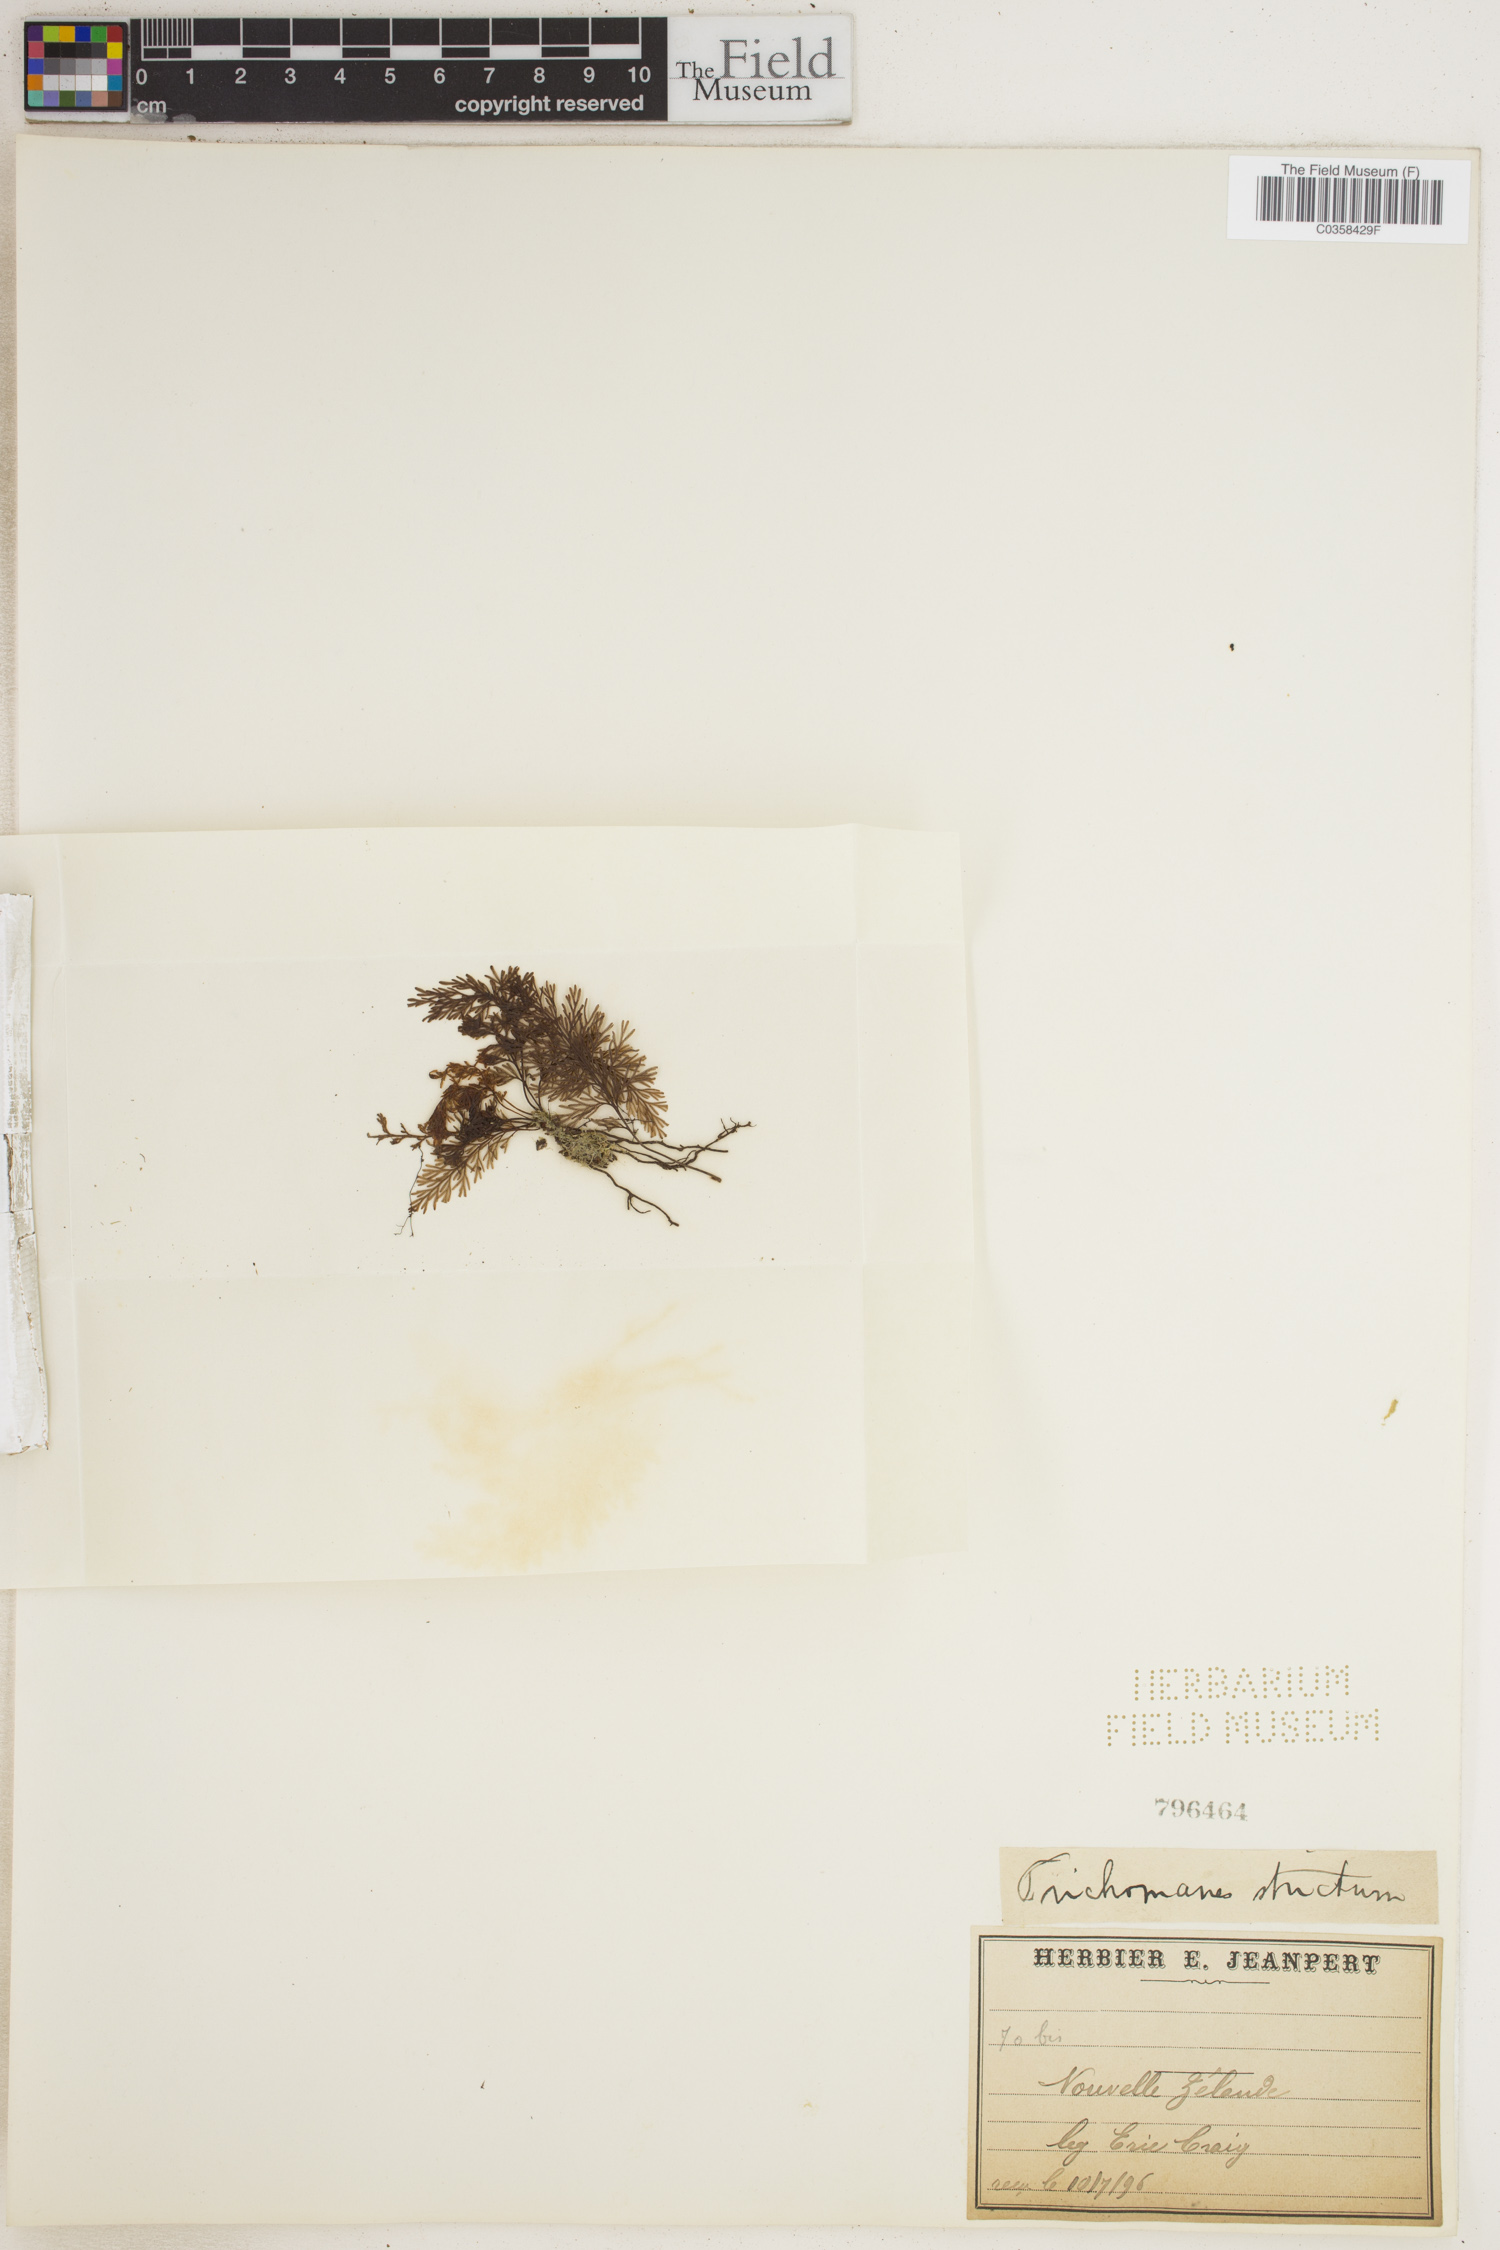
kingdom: Plantae
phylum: Tracheophyta
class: Polypodiopsida
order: Hymenophyllales
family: Hymenophyllaceae
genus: Trichomanes
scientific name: Trichomanes strictum
